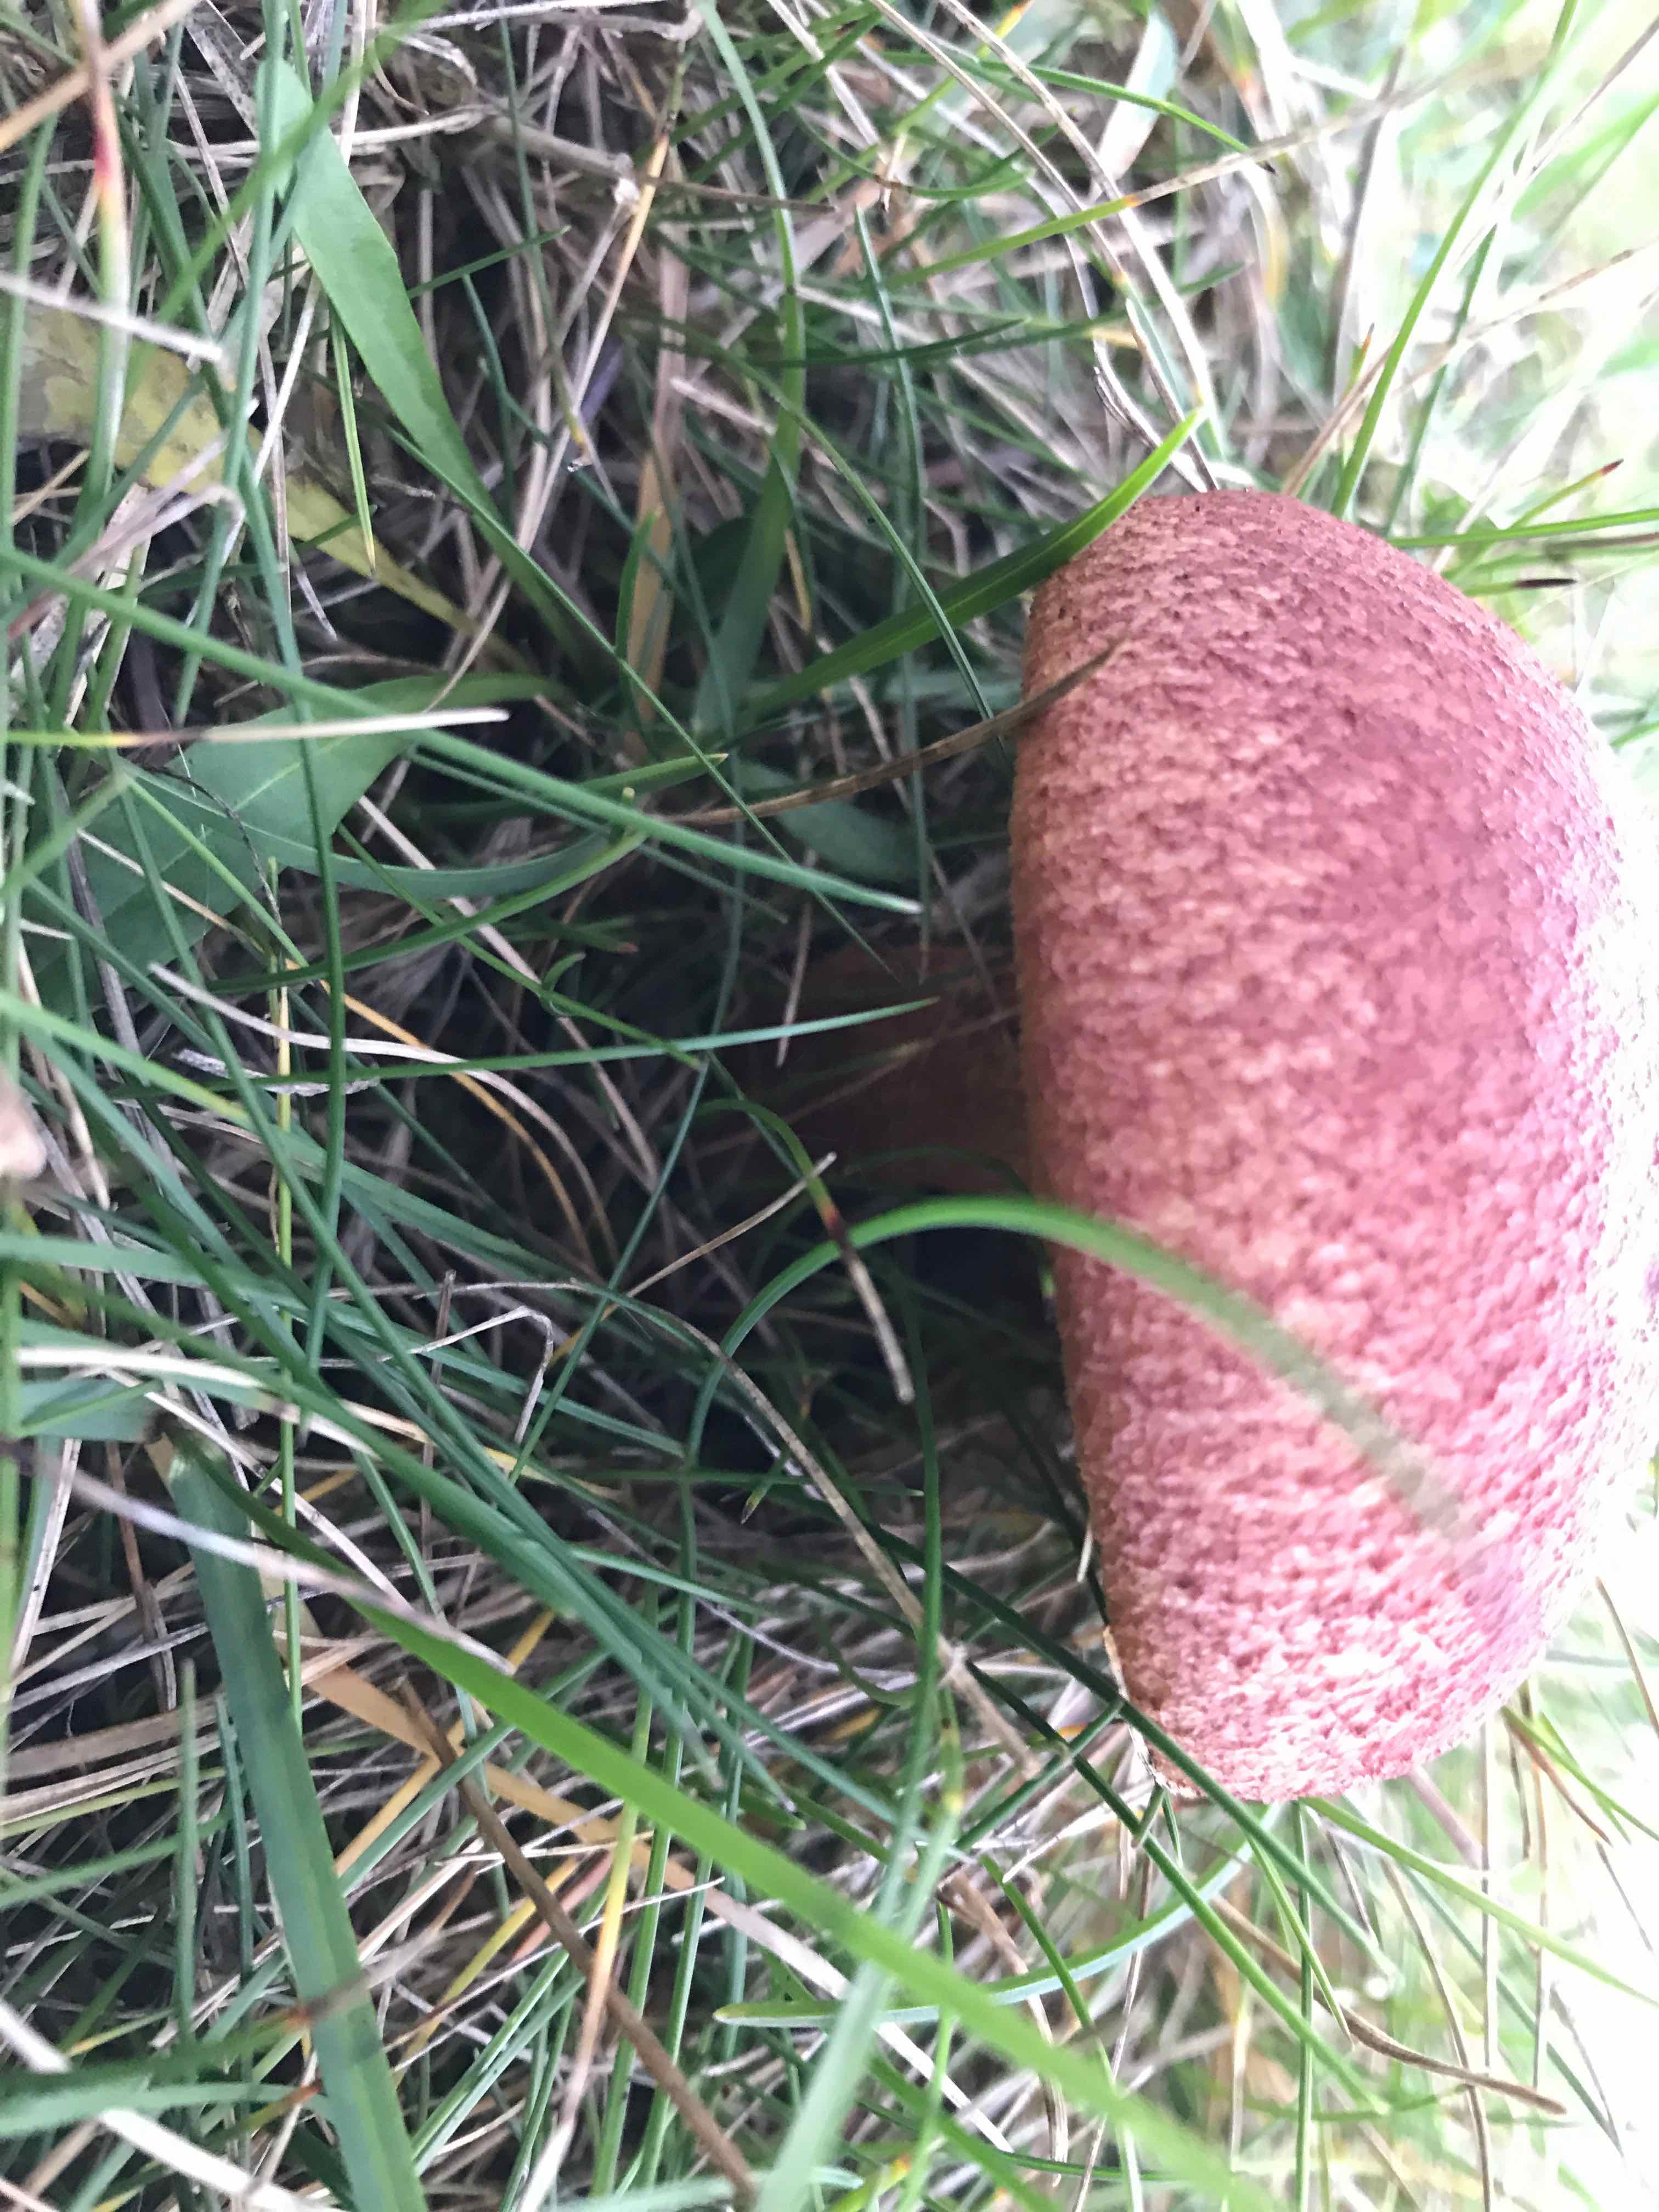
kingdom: Fungi
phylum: Basidiomycota
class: Agaricomycetes
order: Agaricales
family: Tricholomataceae
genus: Tricholomopsis
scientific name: Tricholomopsis rutilans
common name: purpur-væbnerhat
